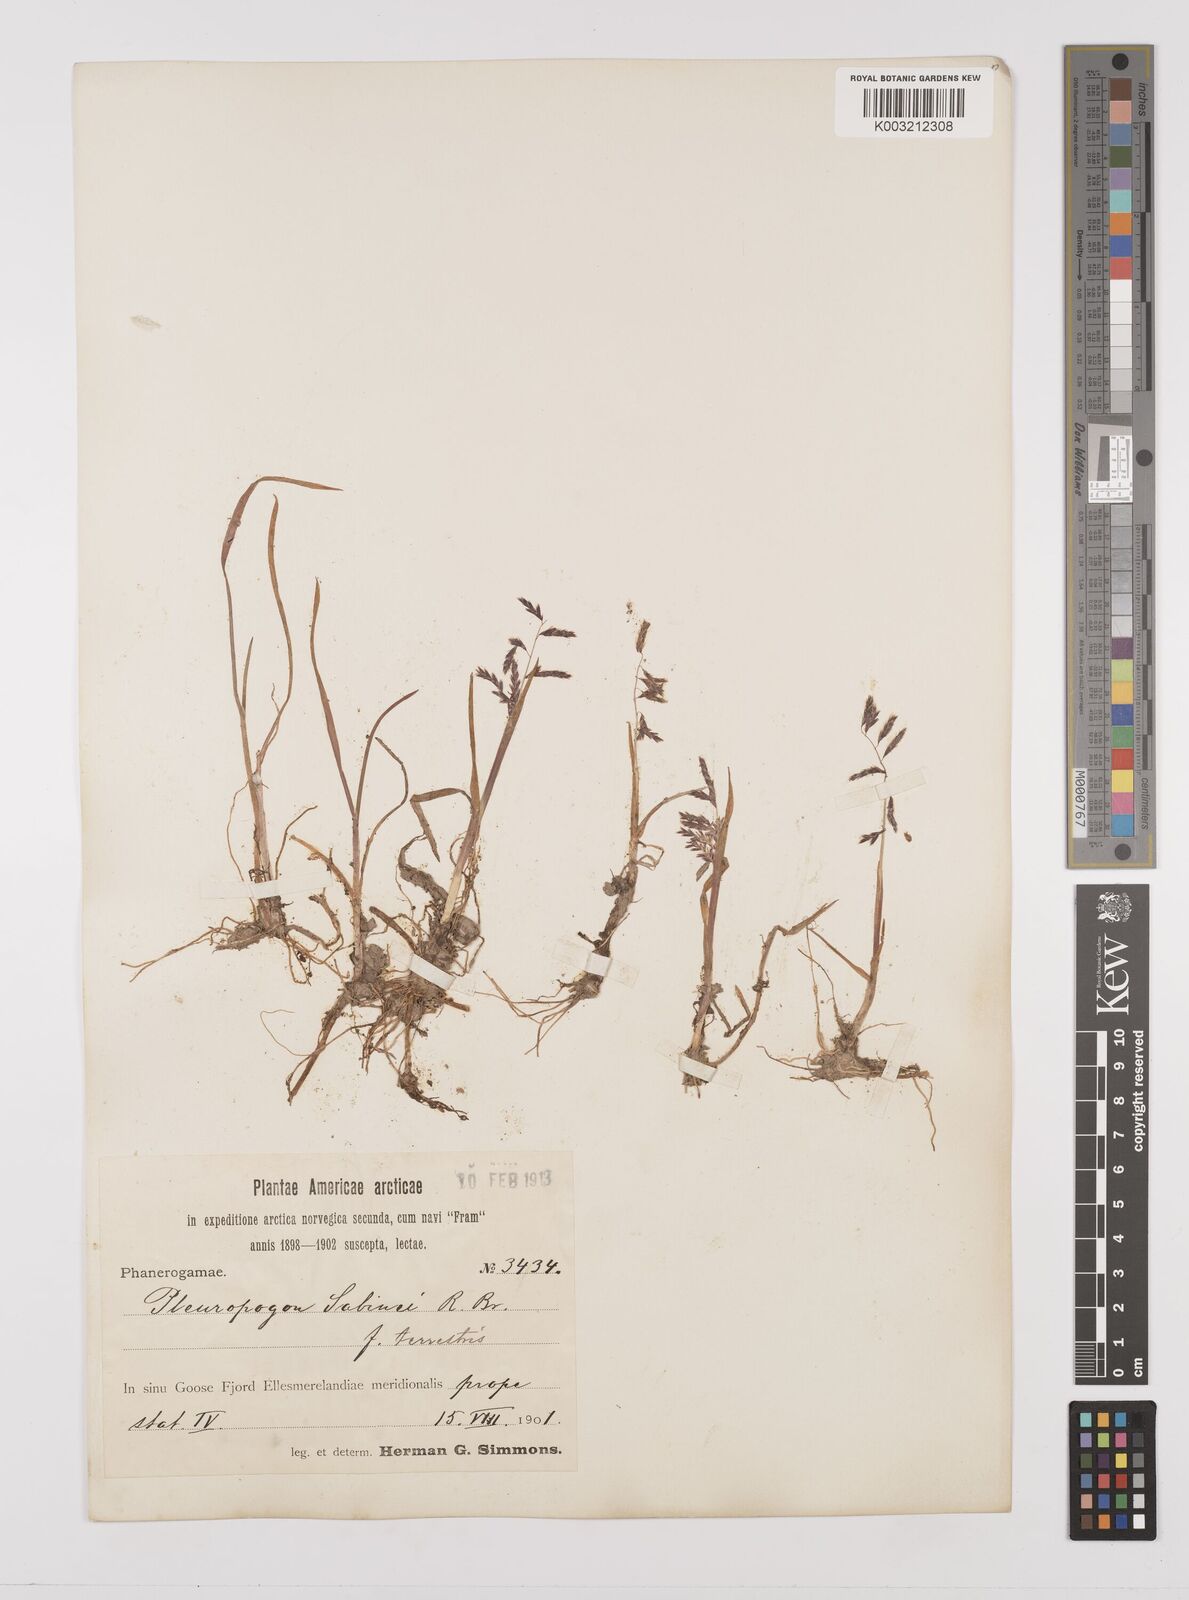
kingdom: Plantae
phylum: Tracheophyta
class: Liliopsida
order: Poales
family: Poaceae
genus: Pleuropogon
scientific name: Pleuropogon sabinei
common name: Sabine's false semaphoregrass
